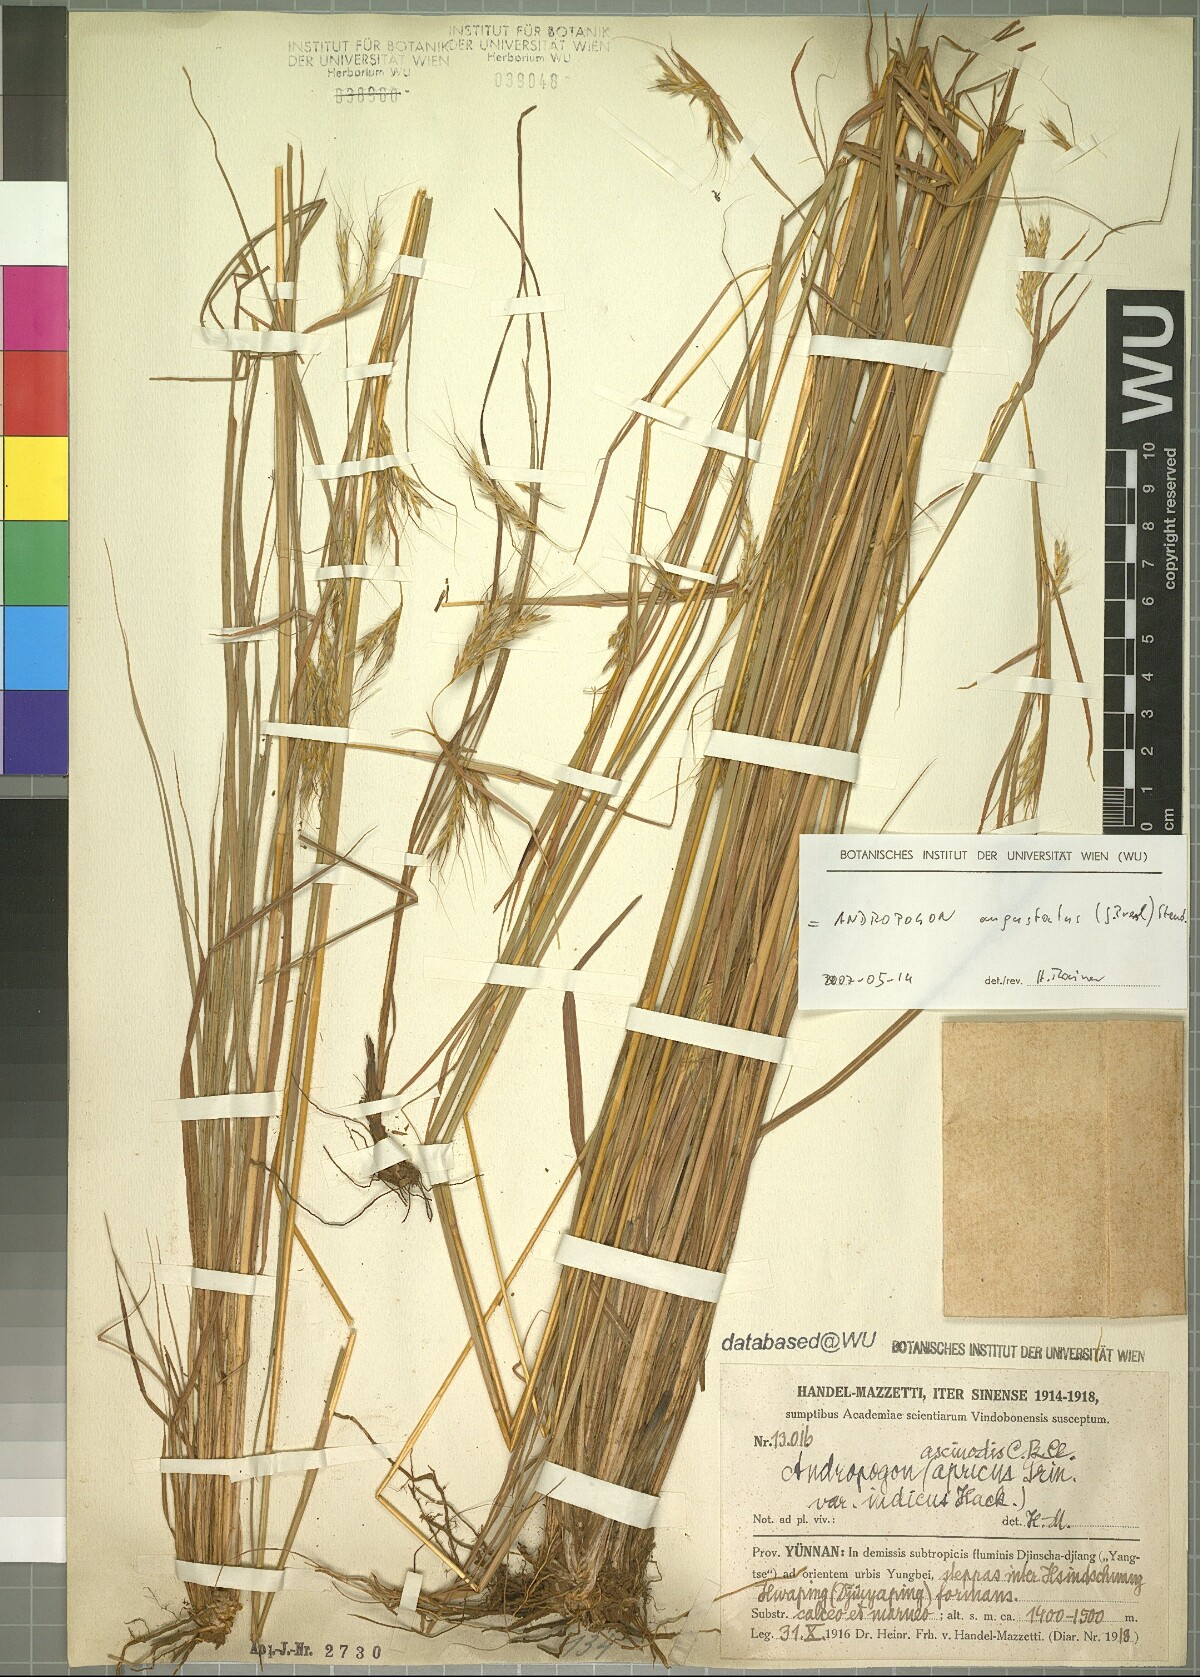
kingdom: Plantae
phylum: Tracheophyta
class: Liliopsida
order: Poales
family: Poaceae
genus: Andropogon
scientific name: Andropogon angustatus
